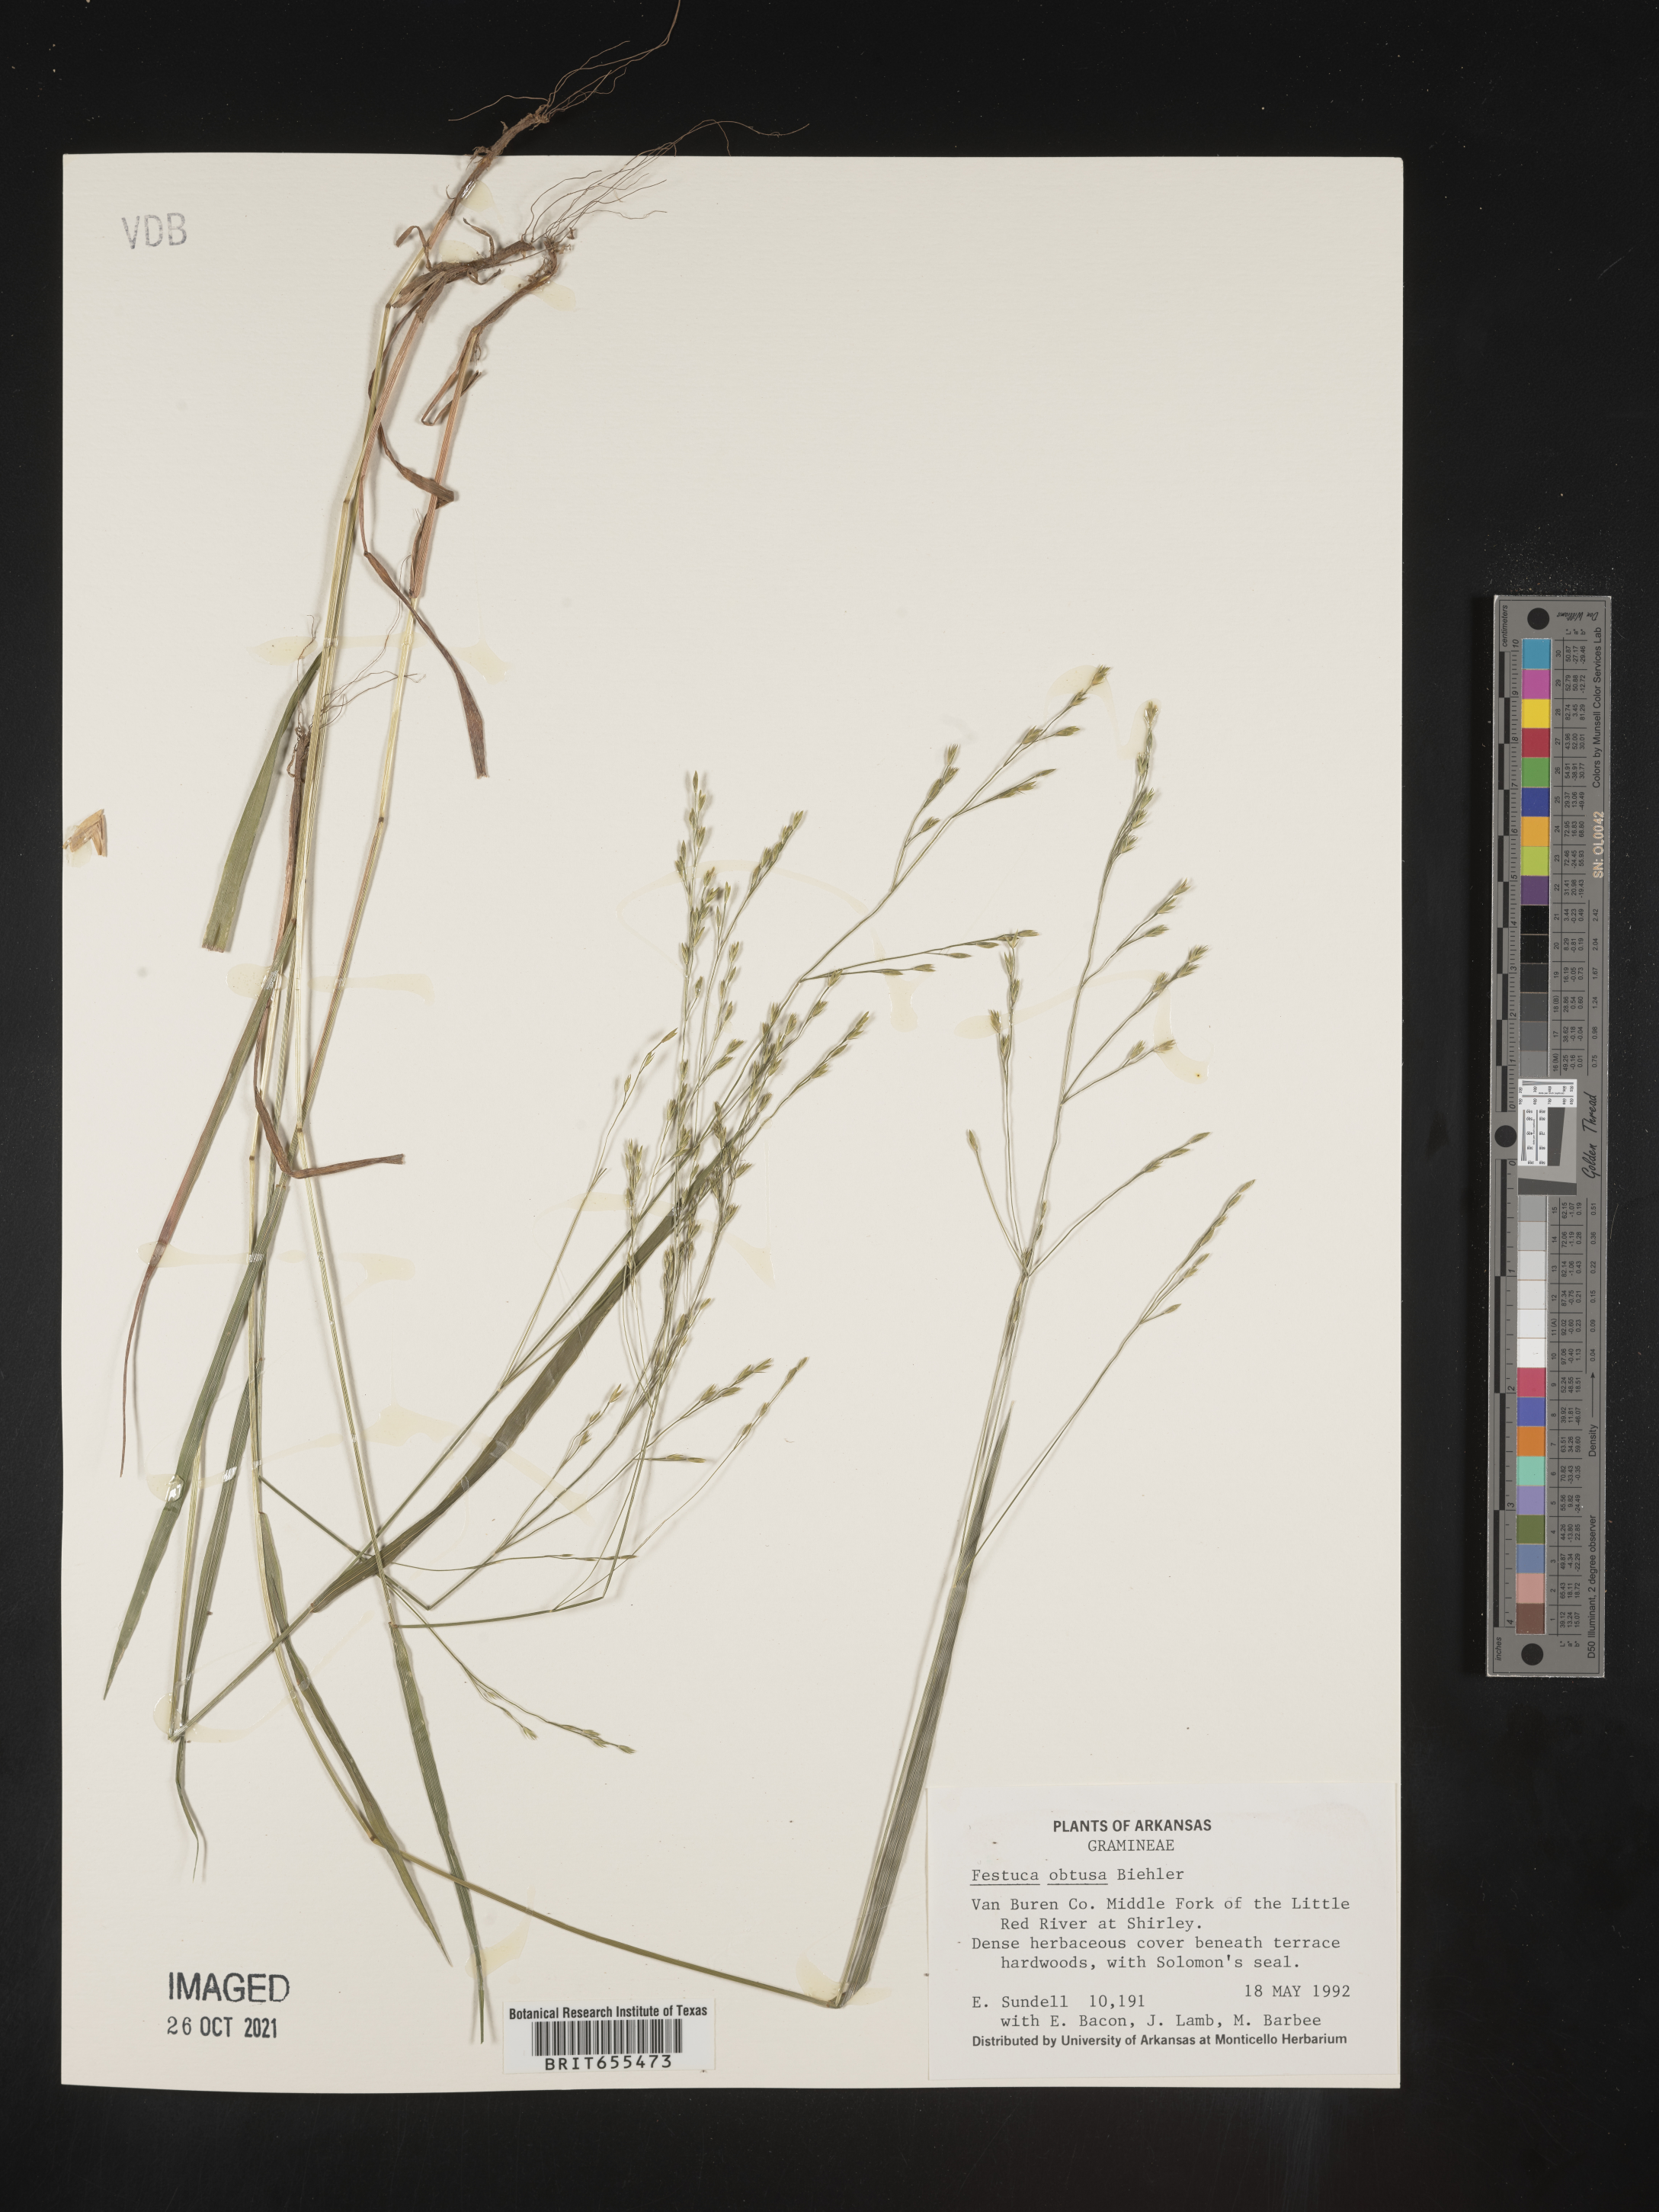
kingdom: Plantae
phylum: Tracheophyta
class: Liliopsida
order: Poales
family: Poaceae
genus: Festuca
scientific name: Festuca
